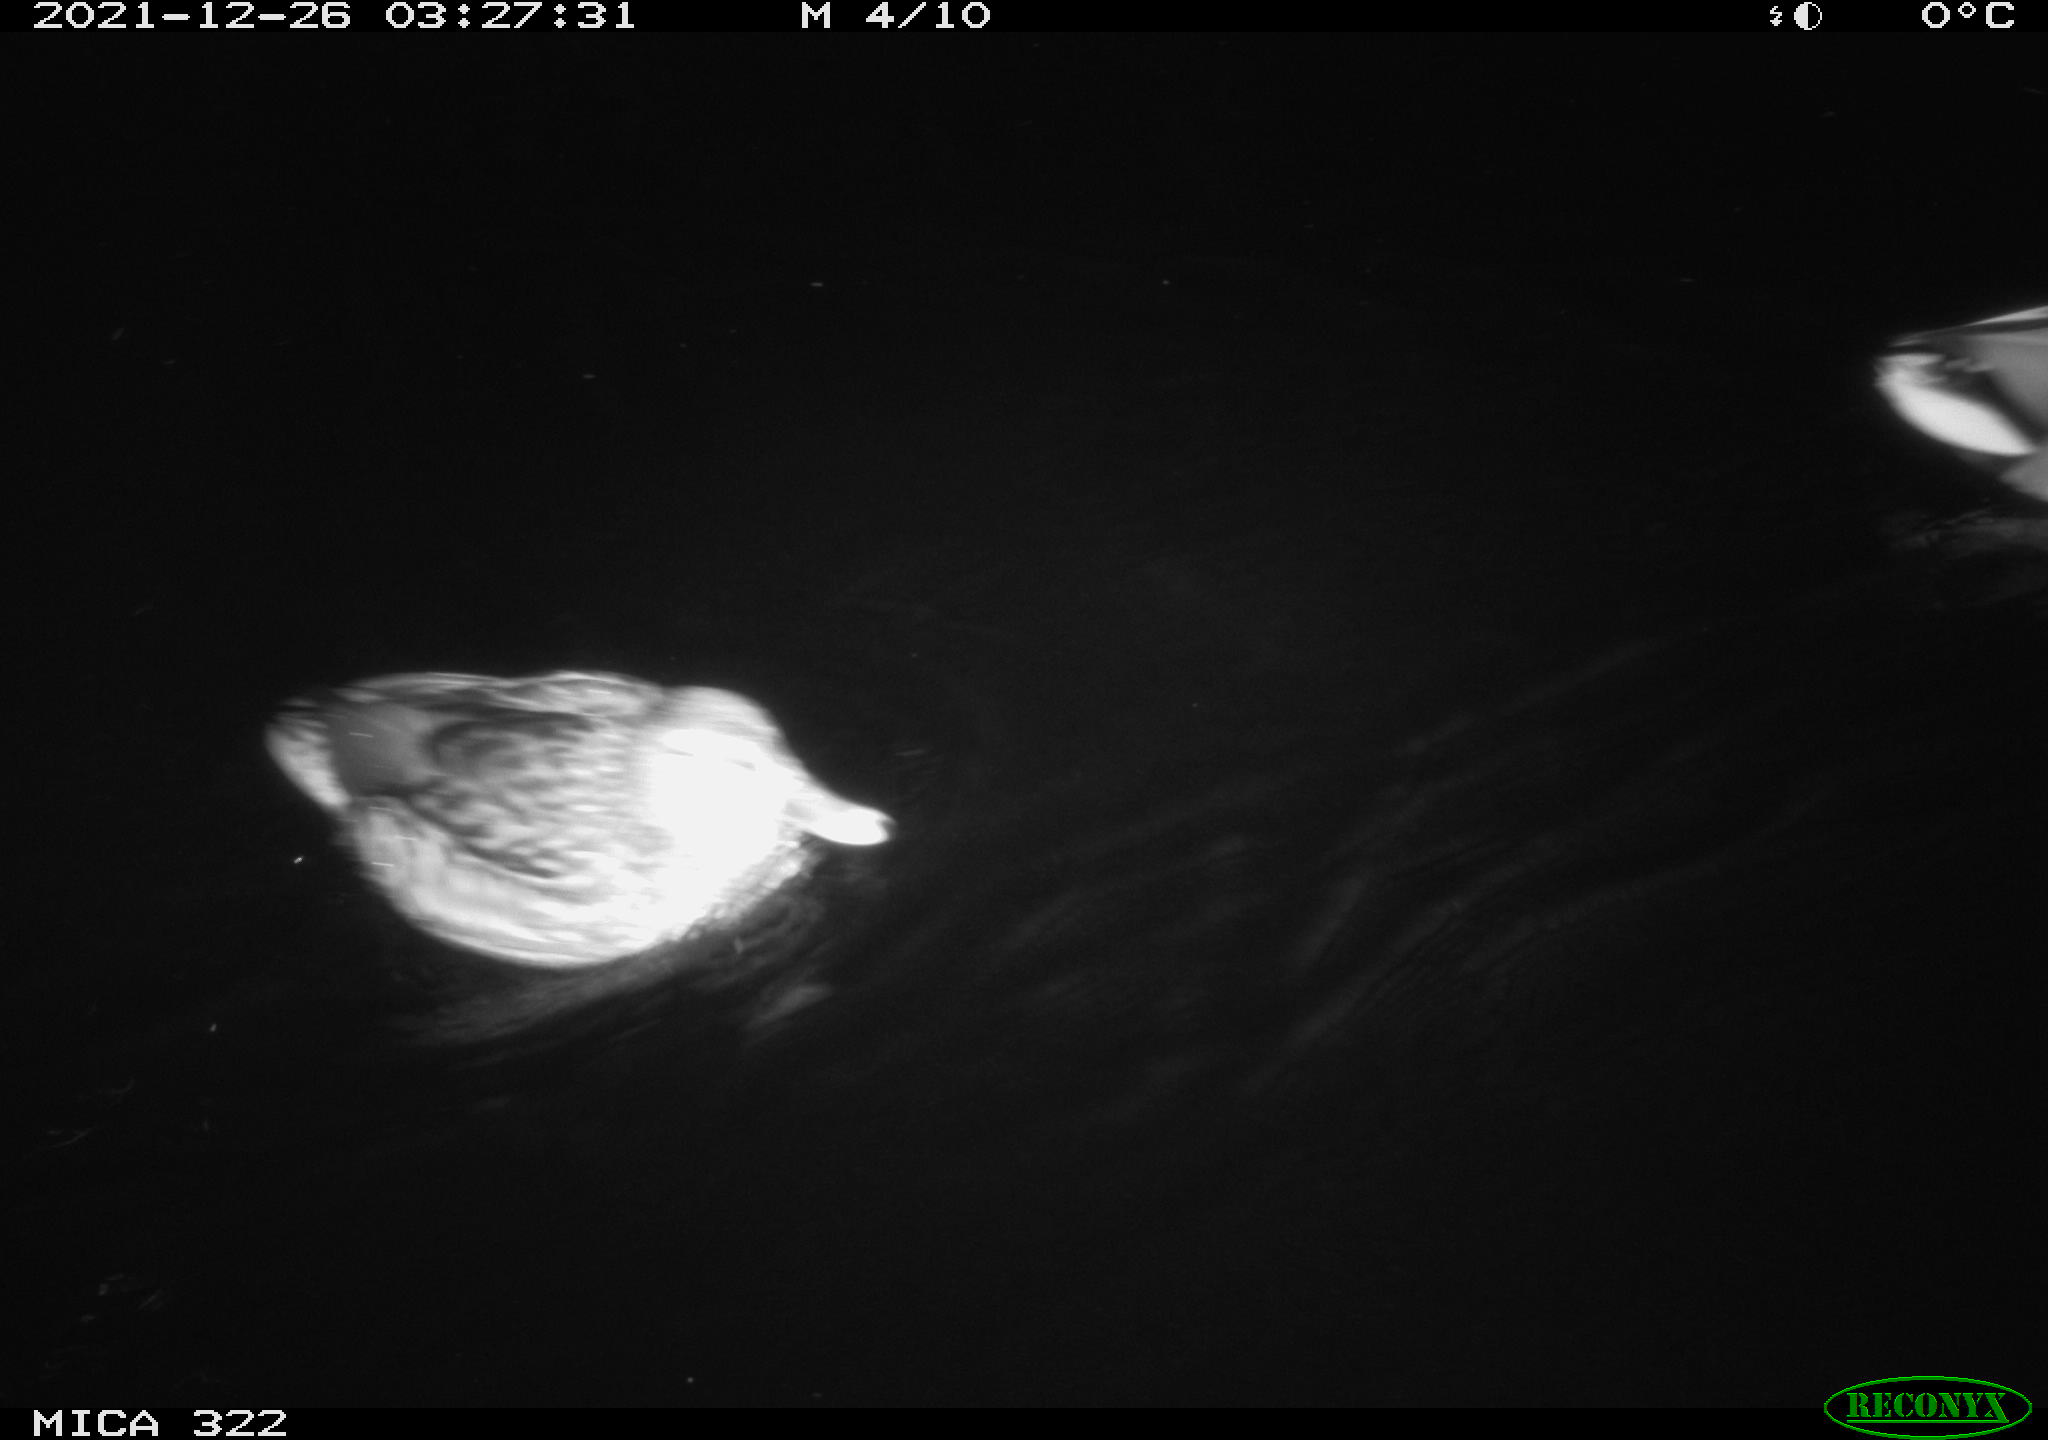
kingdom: Animalia
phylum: Chordata
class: Aves
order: Anseriformes
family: Anatidae
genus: Anas
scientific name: Anas
